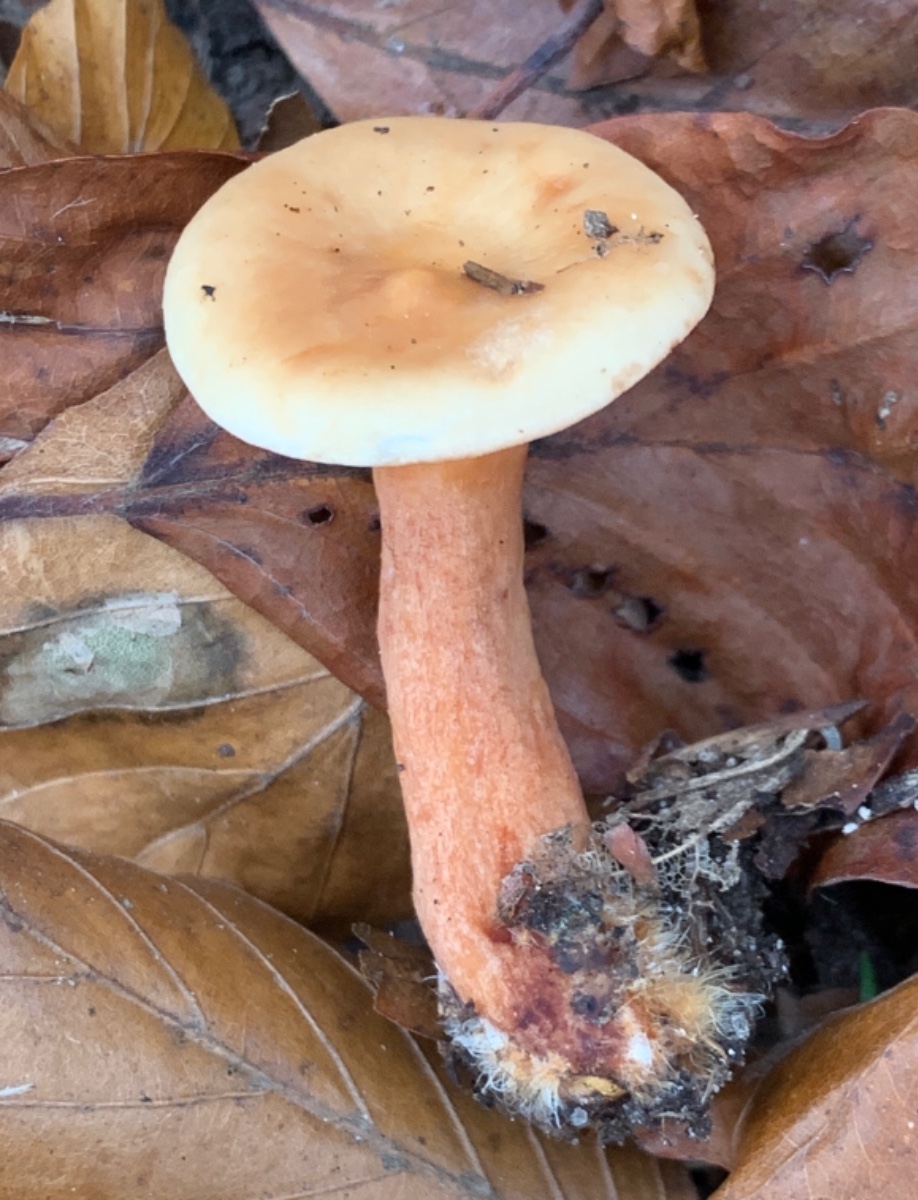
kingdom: Fungi
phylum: Basidiomycota
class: Agaricomycetes
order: Russulales
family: Russulaceae
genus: Lactarius
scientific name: Lactarius subdulcis
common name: sødlig mælkehat
